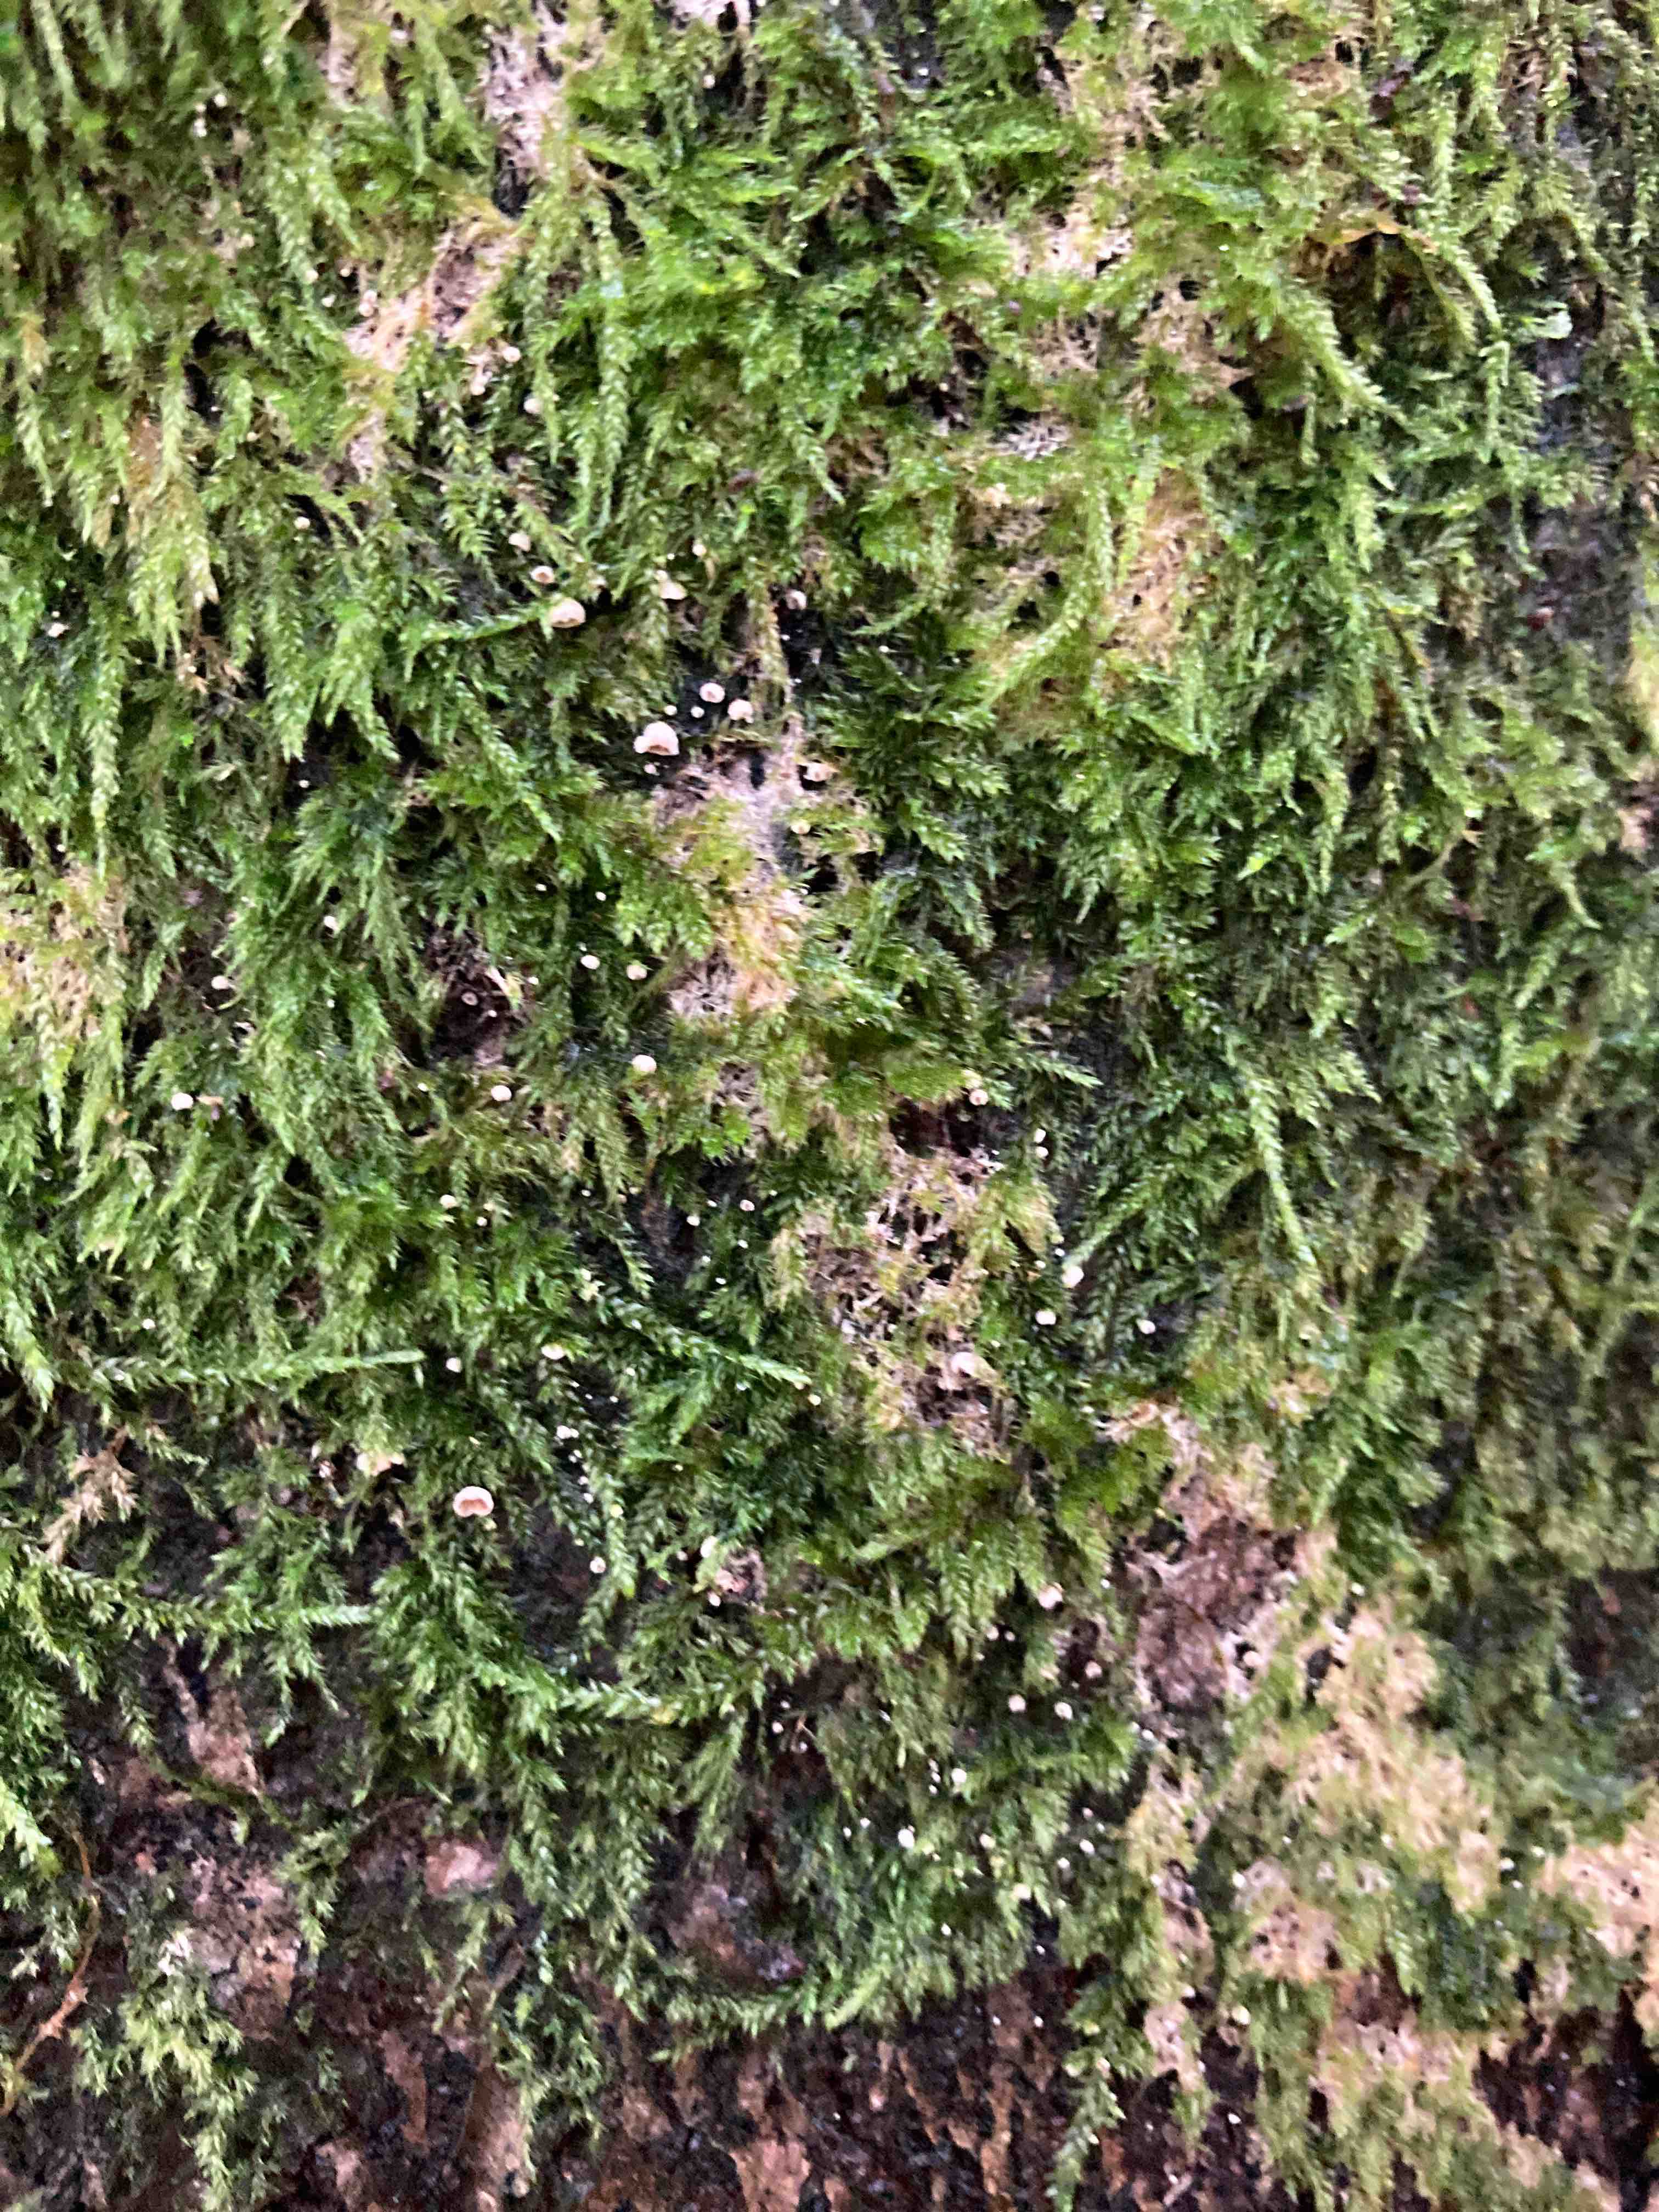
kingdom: Fungi
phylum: Basidiomycota
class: Agaricomycetes
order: Agaricales
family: Chromocyphellaceae
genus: Chromocyphella
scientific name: Chromocyphella muscicola
